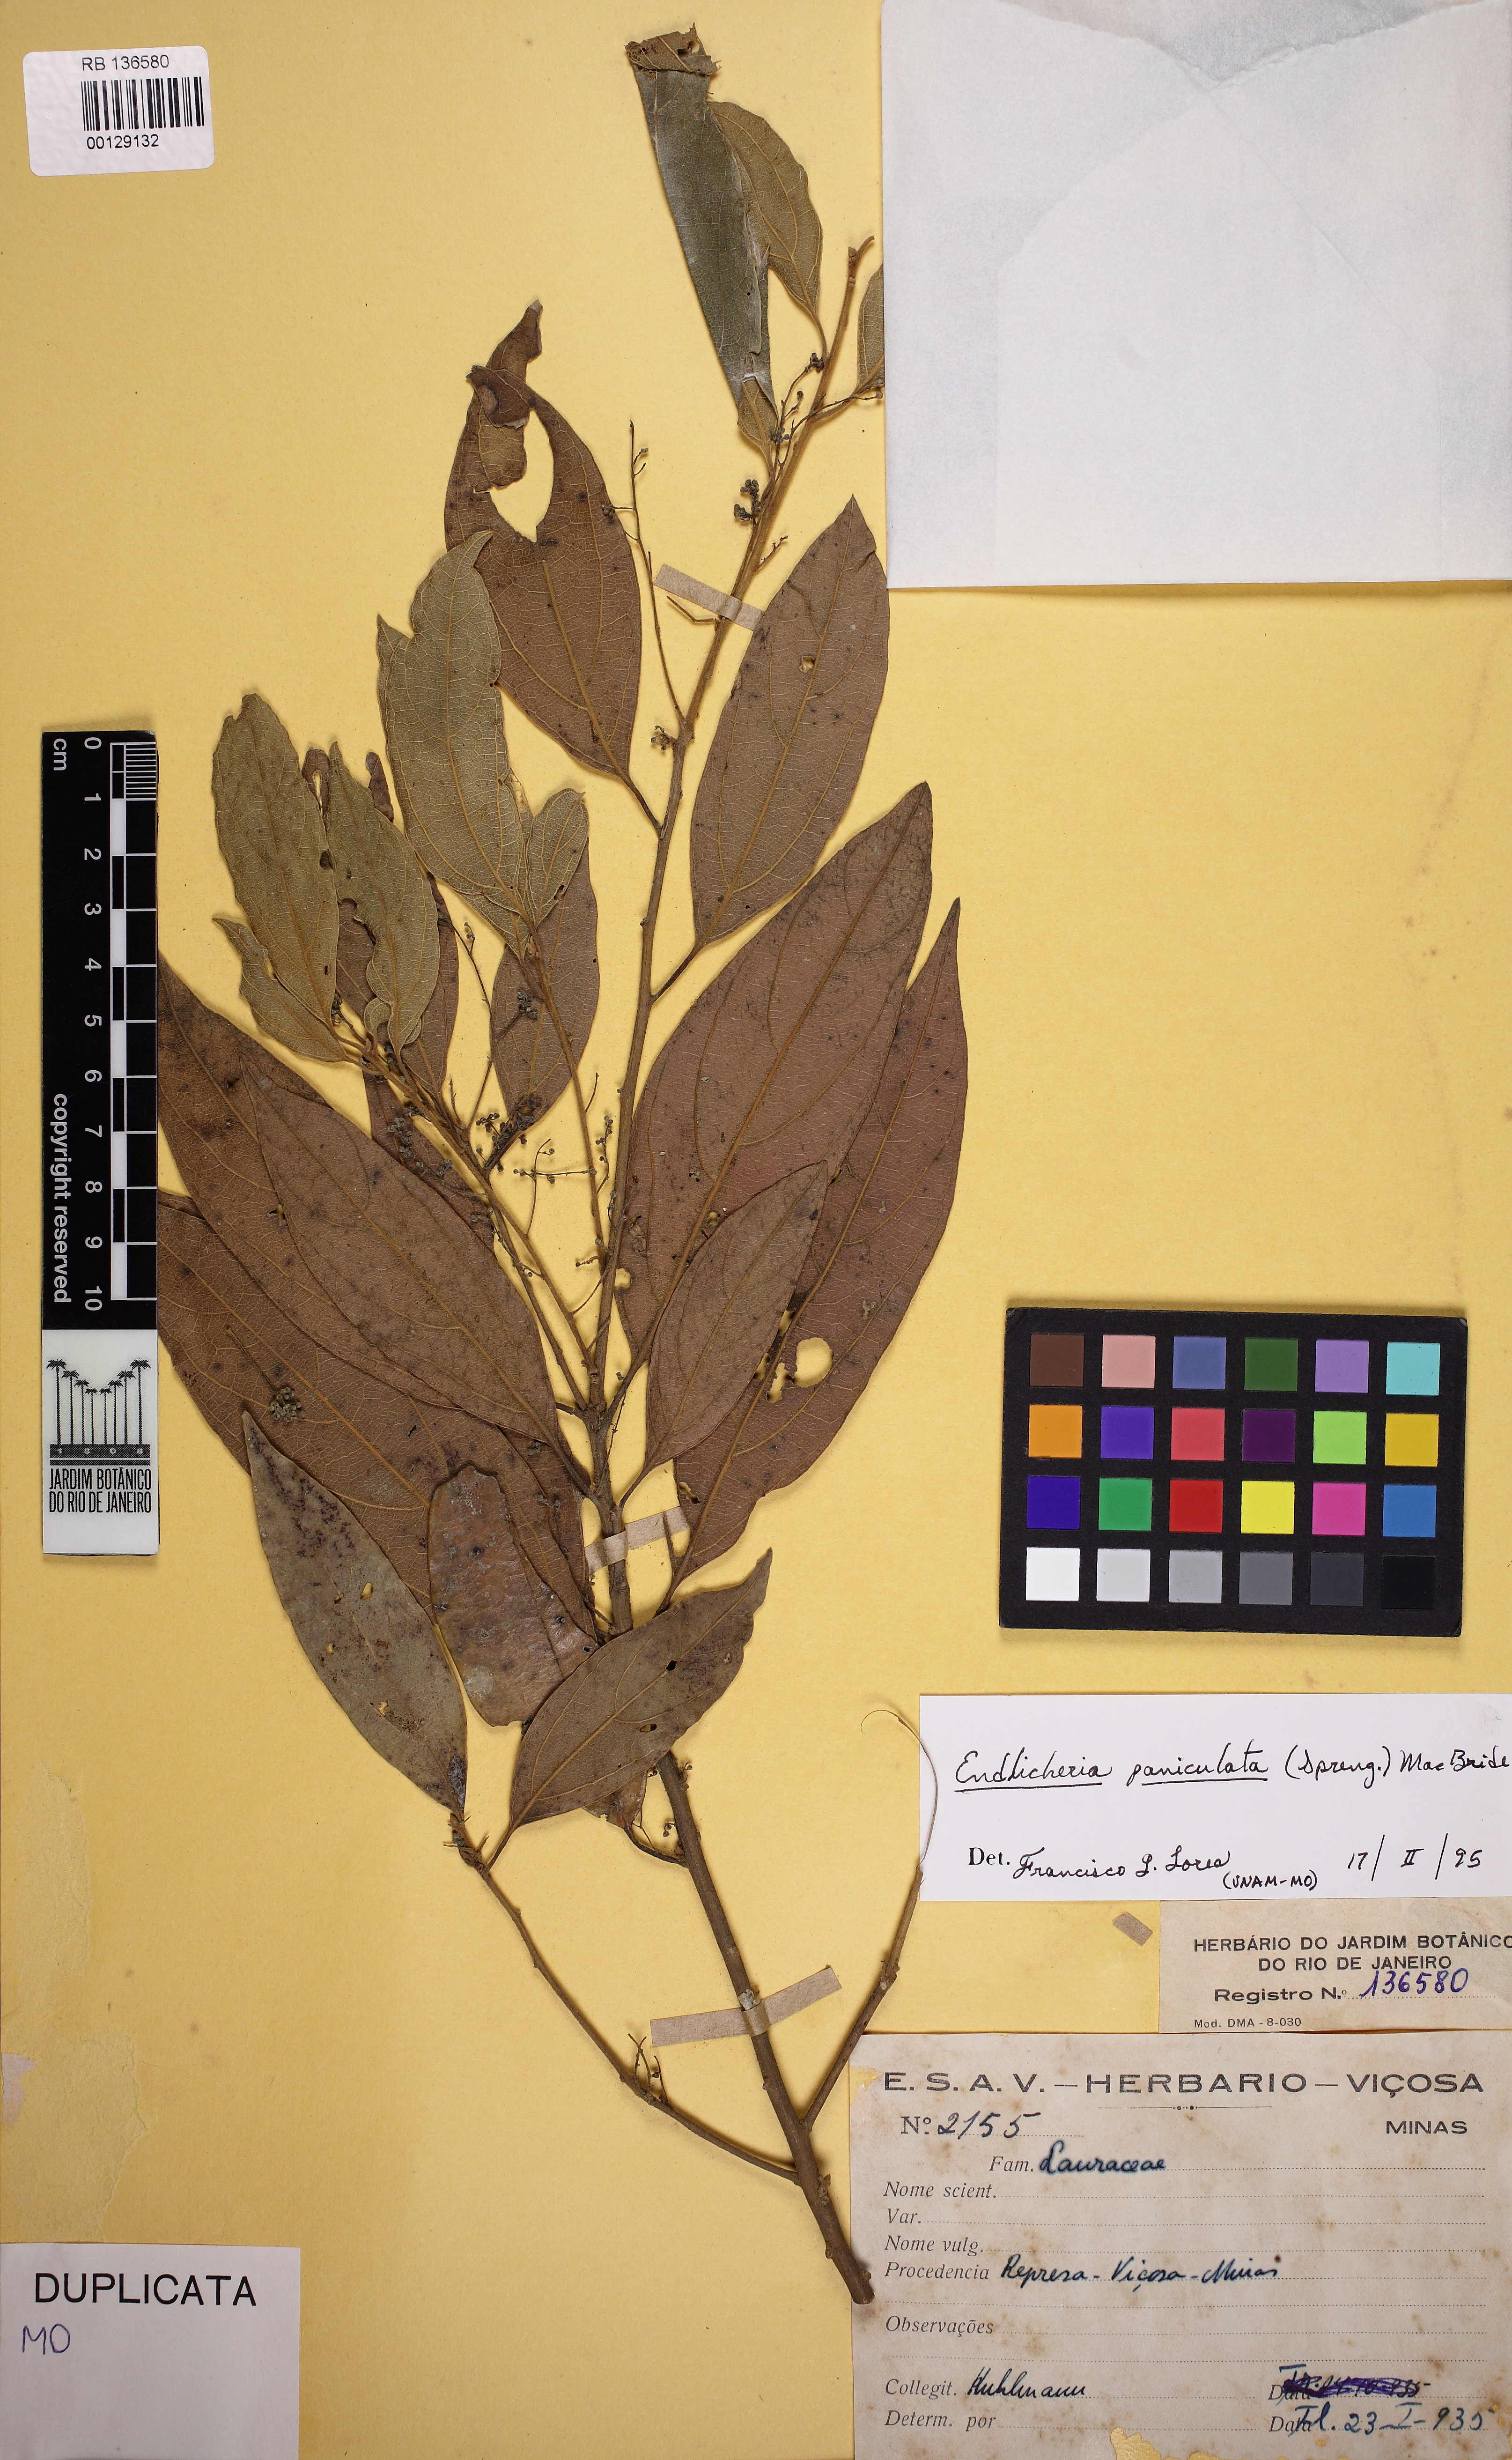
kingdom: Plantae
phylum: Tracheophyta
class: Magnoliopsida
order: Laurales
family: Lauraceae
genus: Endlicheria
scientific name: Endlicheria paniculata
